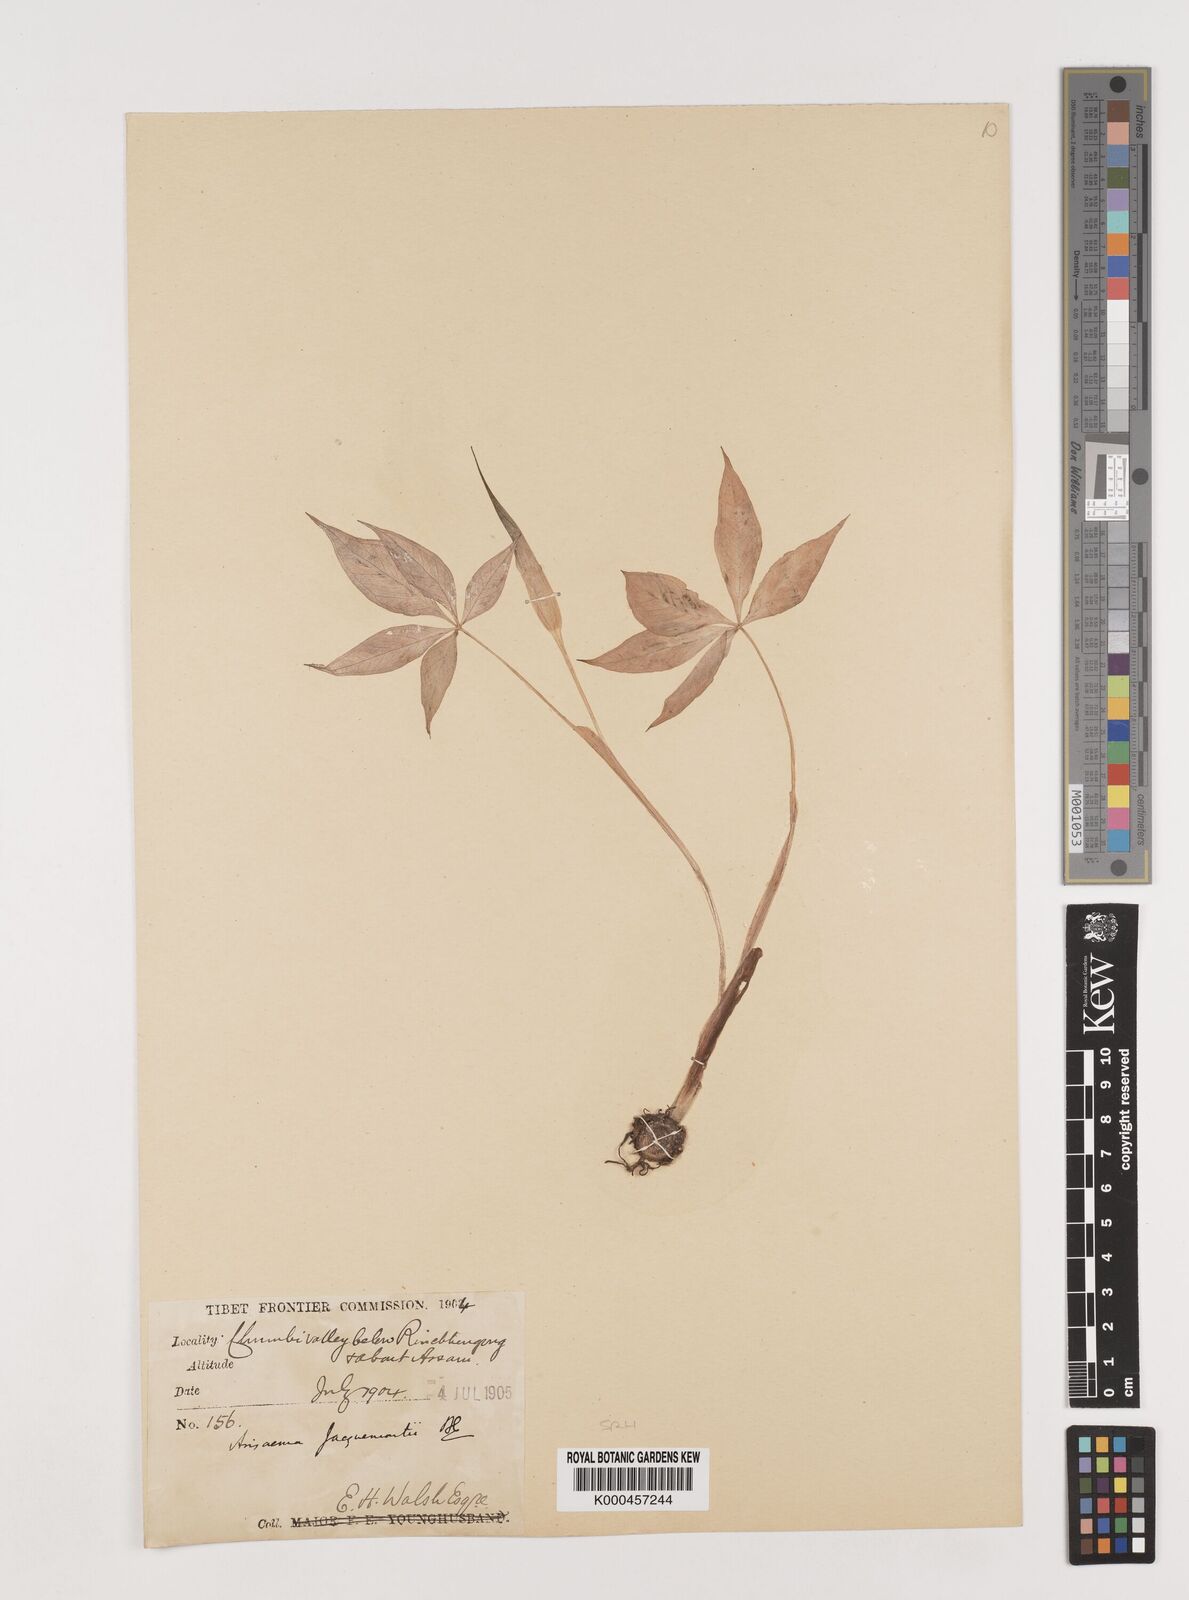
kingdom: Plantae
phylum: Tracheophyta
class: Liliopsida
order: Alismatales
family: Araceae
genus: Arisaema
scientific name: Arisaema jacquemontii
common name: Jacquemont's cobra-lily
